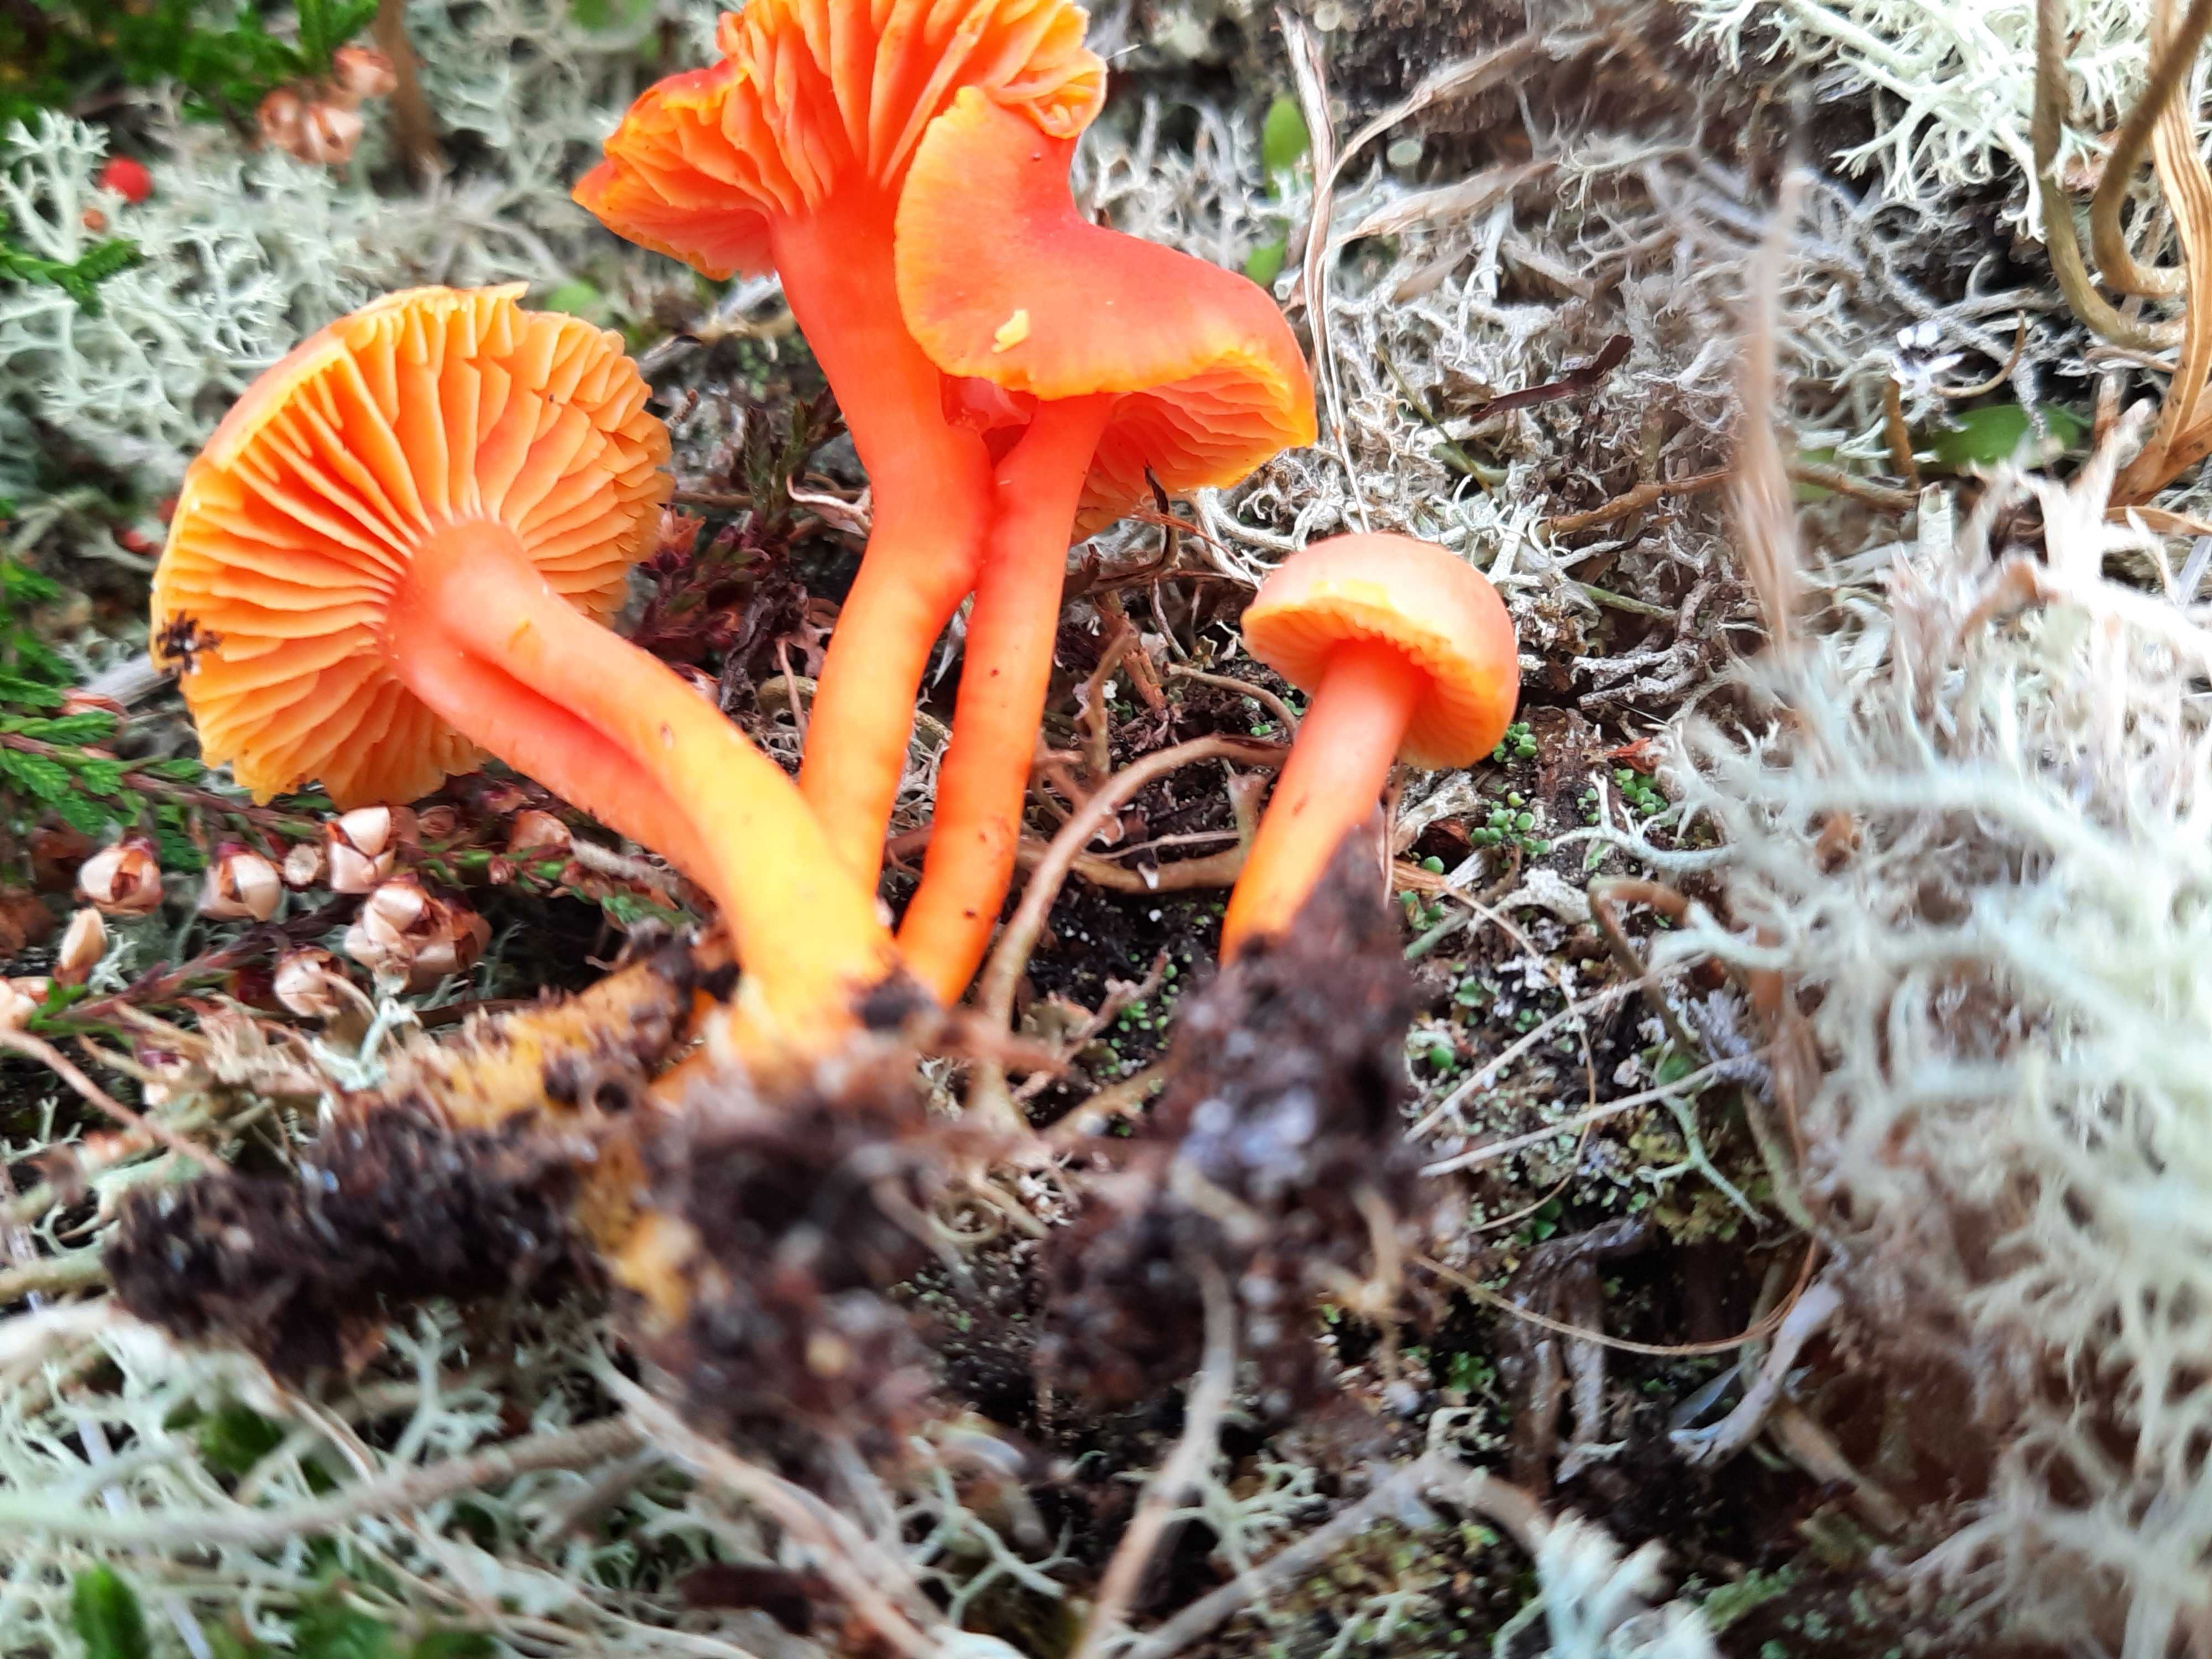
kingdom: Fungi
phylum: Basidiomycota
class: Agaricomycetes
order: Agaricales
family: Hygrophoraceae
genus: Hygrocybe
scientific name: Hygrocybe miniata
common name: mønje-vokshat
